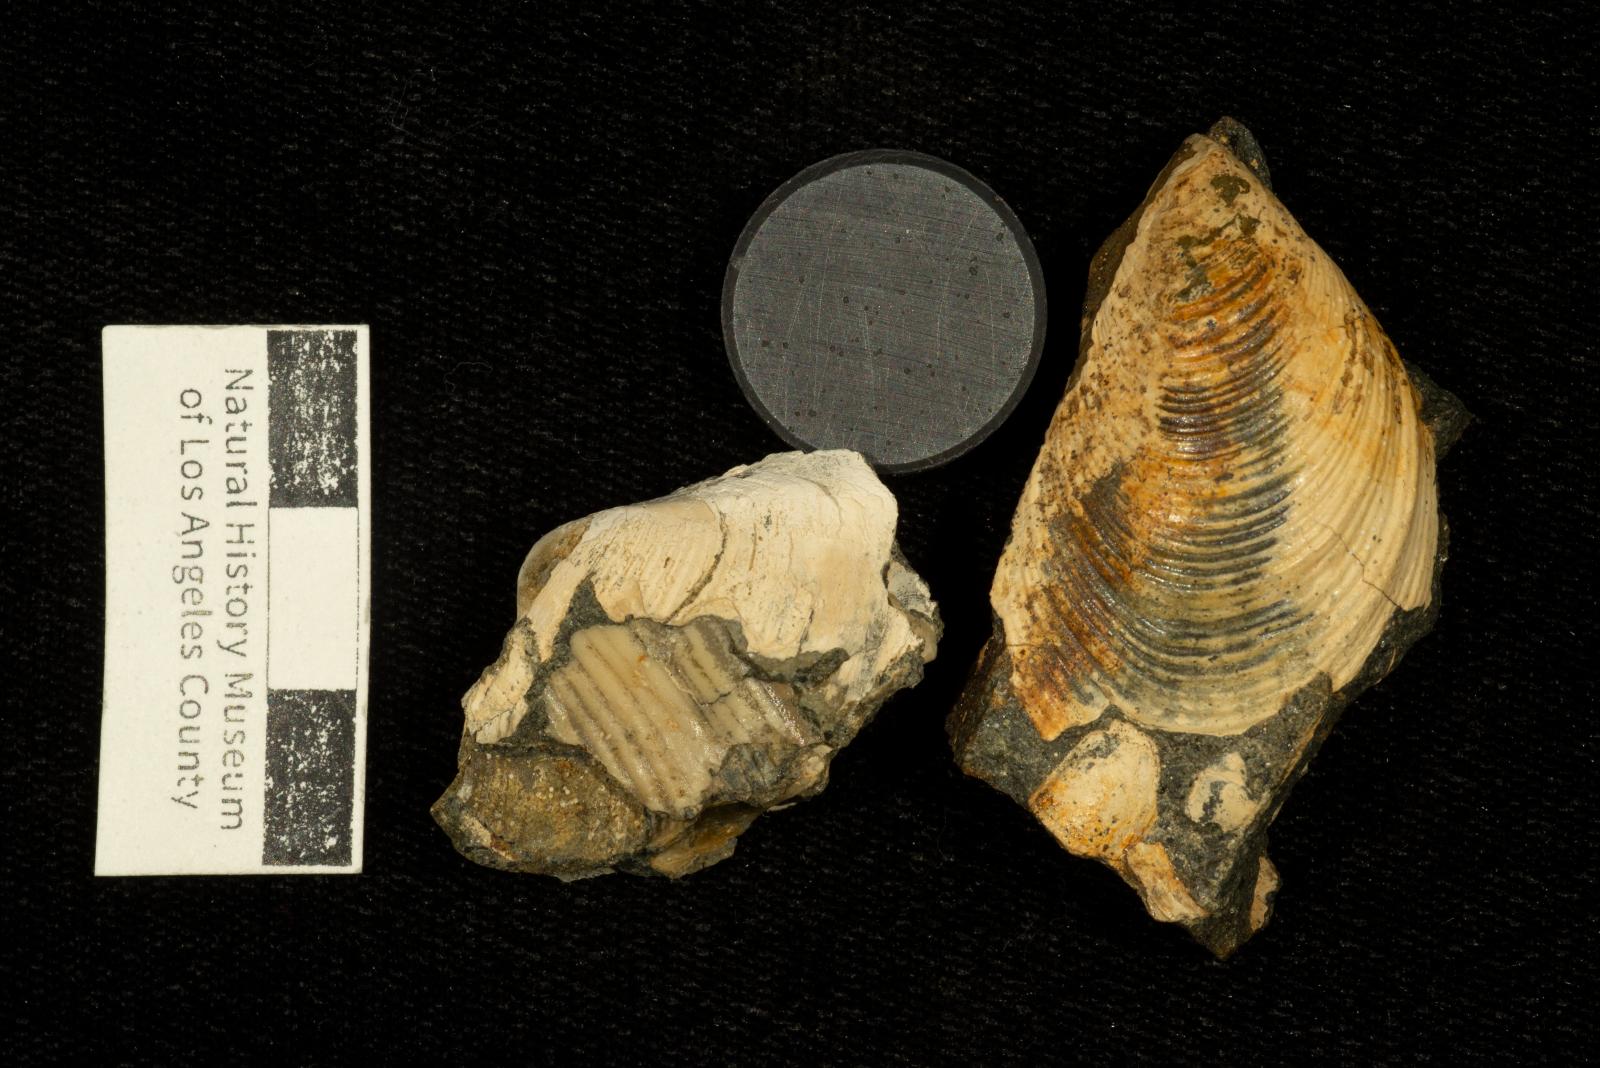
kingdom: Animalia
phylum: Mollusca
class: Bivalvia
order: Myalinida
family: Inoceramidae
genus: Sphenoceramus
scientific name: Sphenoceramus naumanni
